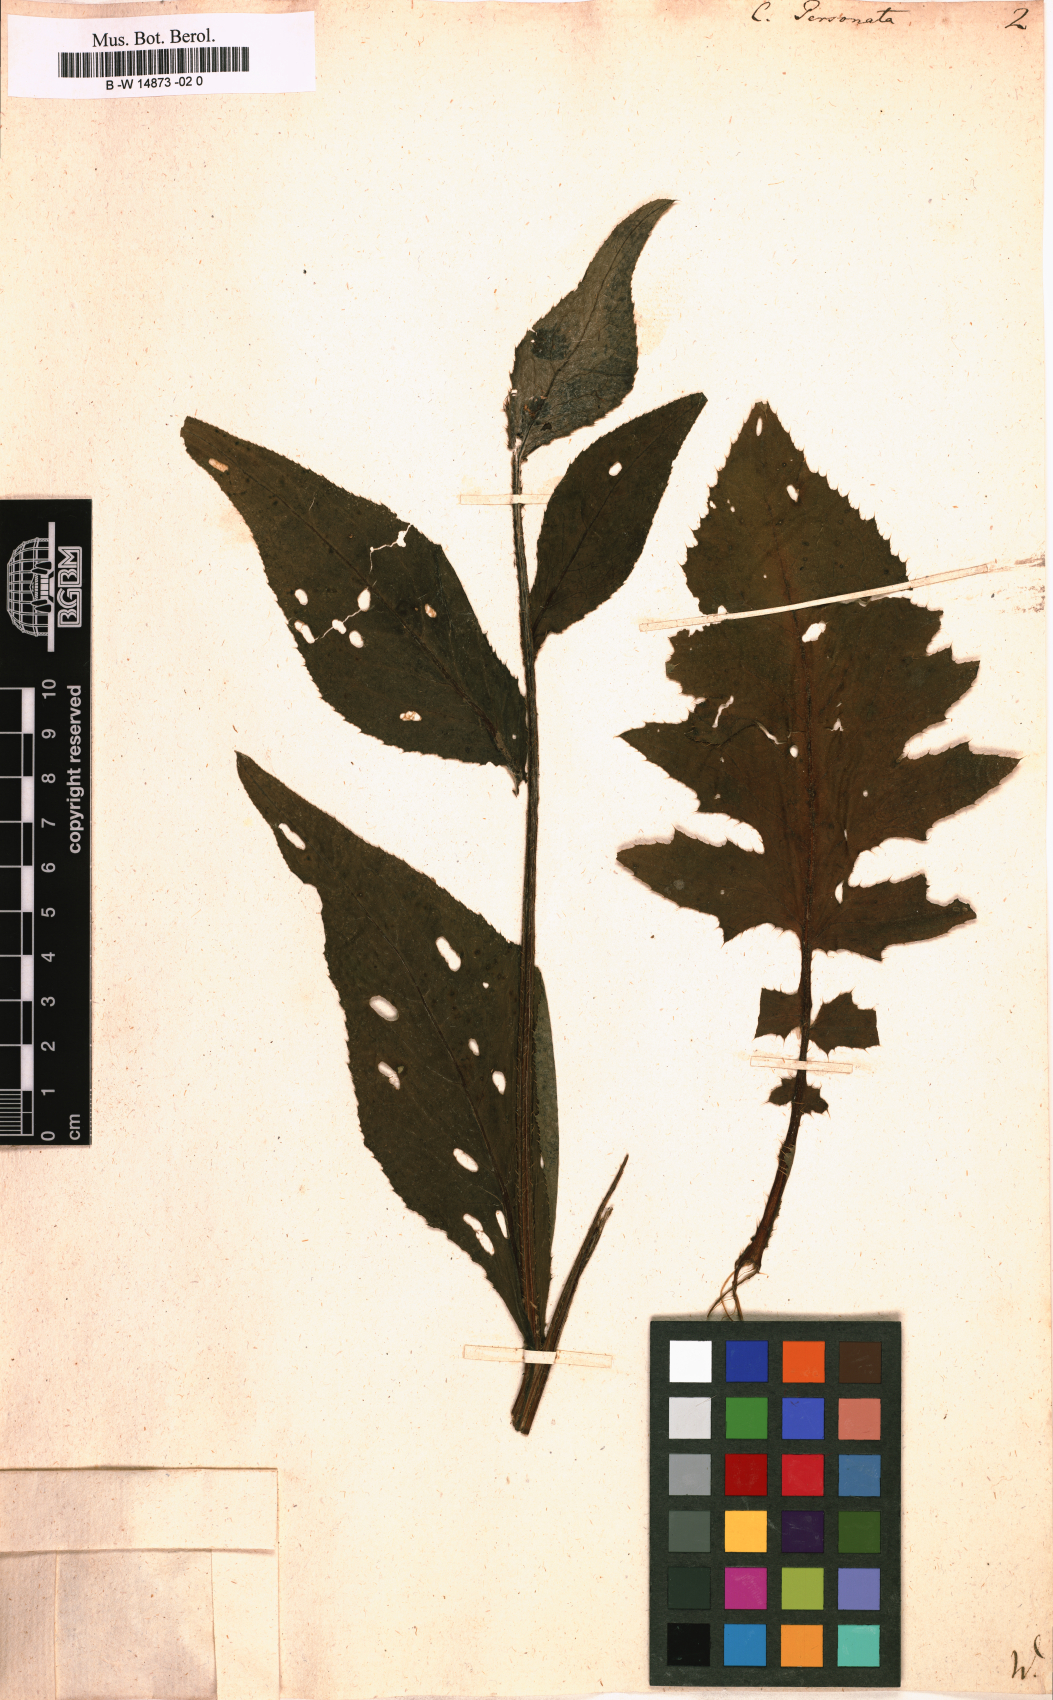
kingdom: Plantae
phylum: Tracheophyta
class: Magnoliopsida
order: Asterales
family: Asteraceae
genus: Carduus
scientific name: Carduus personata
